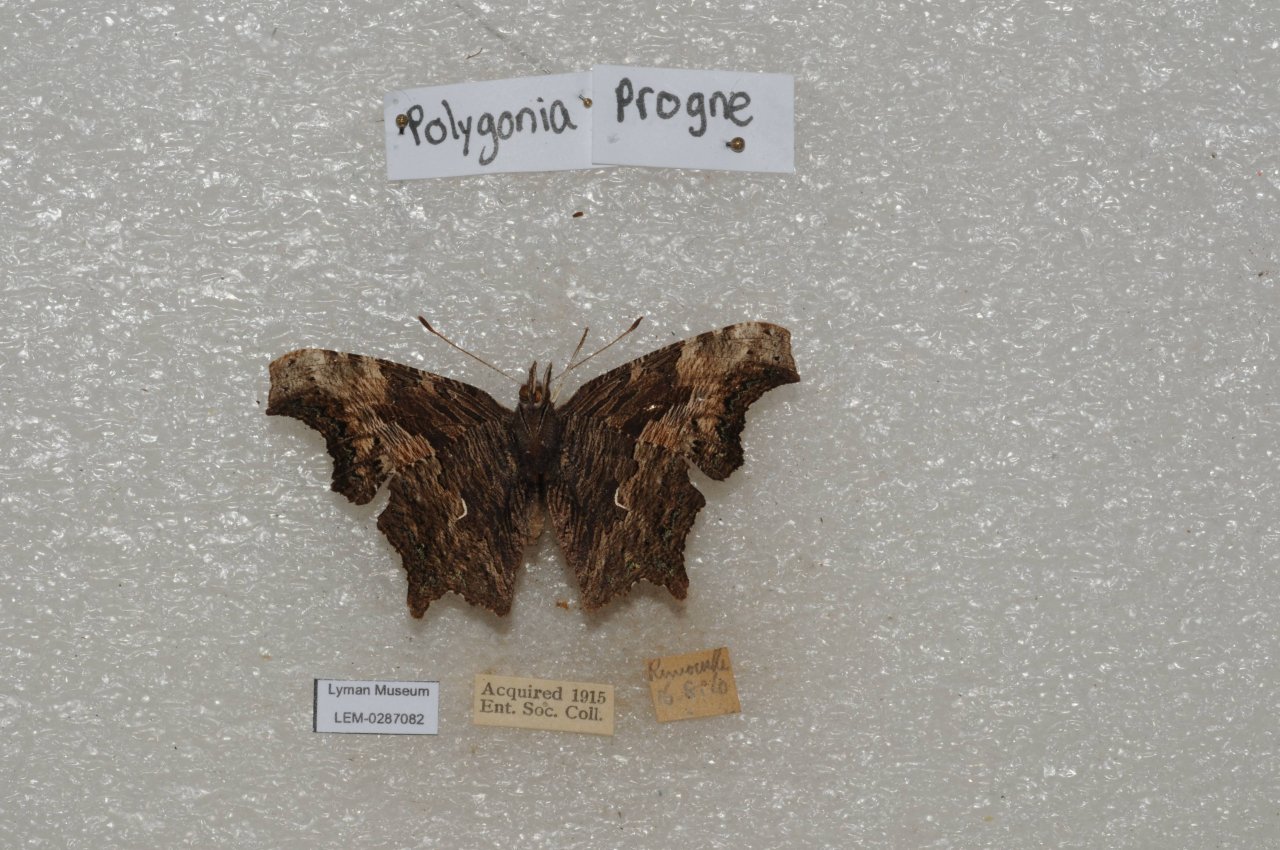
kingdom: Animalia
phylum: Arthropoda
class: Insecta
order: Lepidoptera
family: Nymphalidae
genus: Polygonia
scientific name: Polygonia progne
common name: Gray Comma
